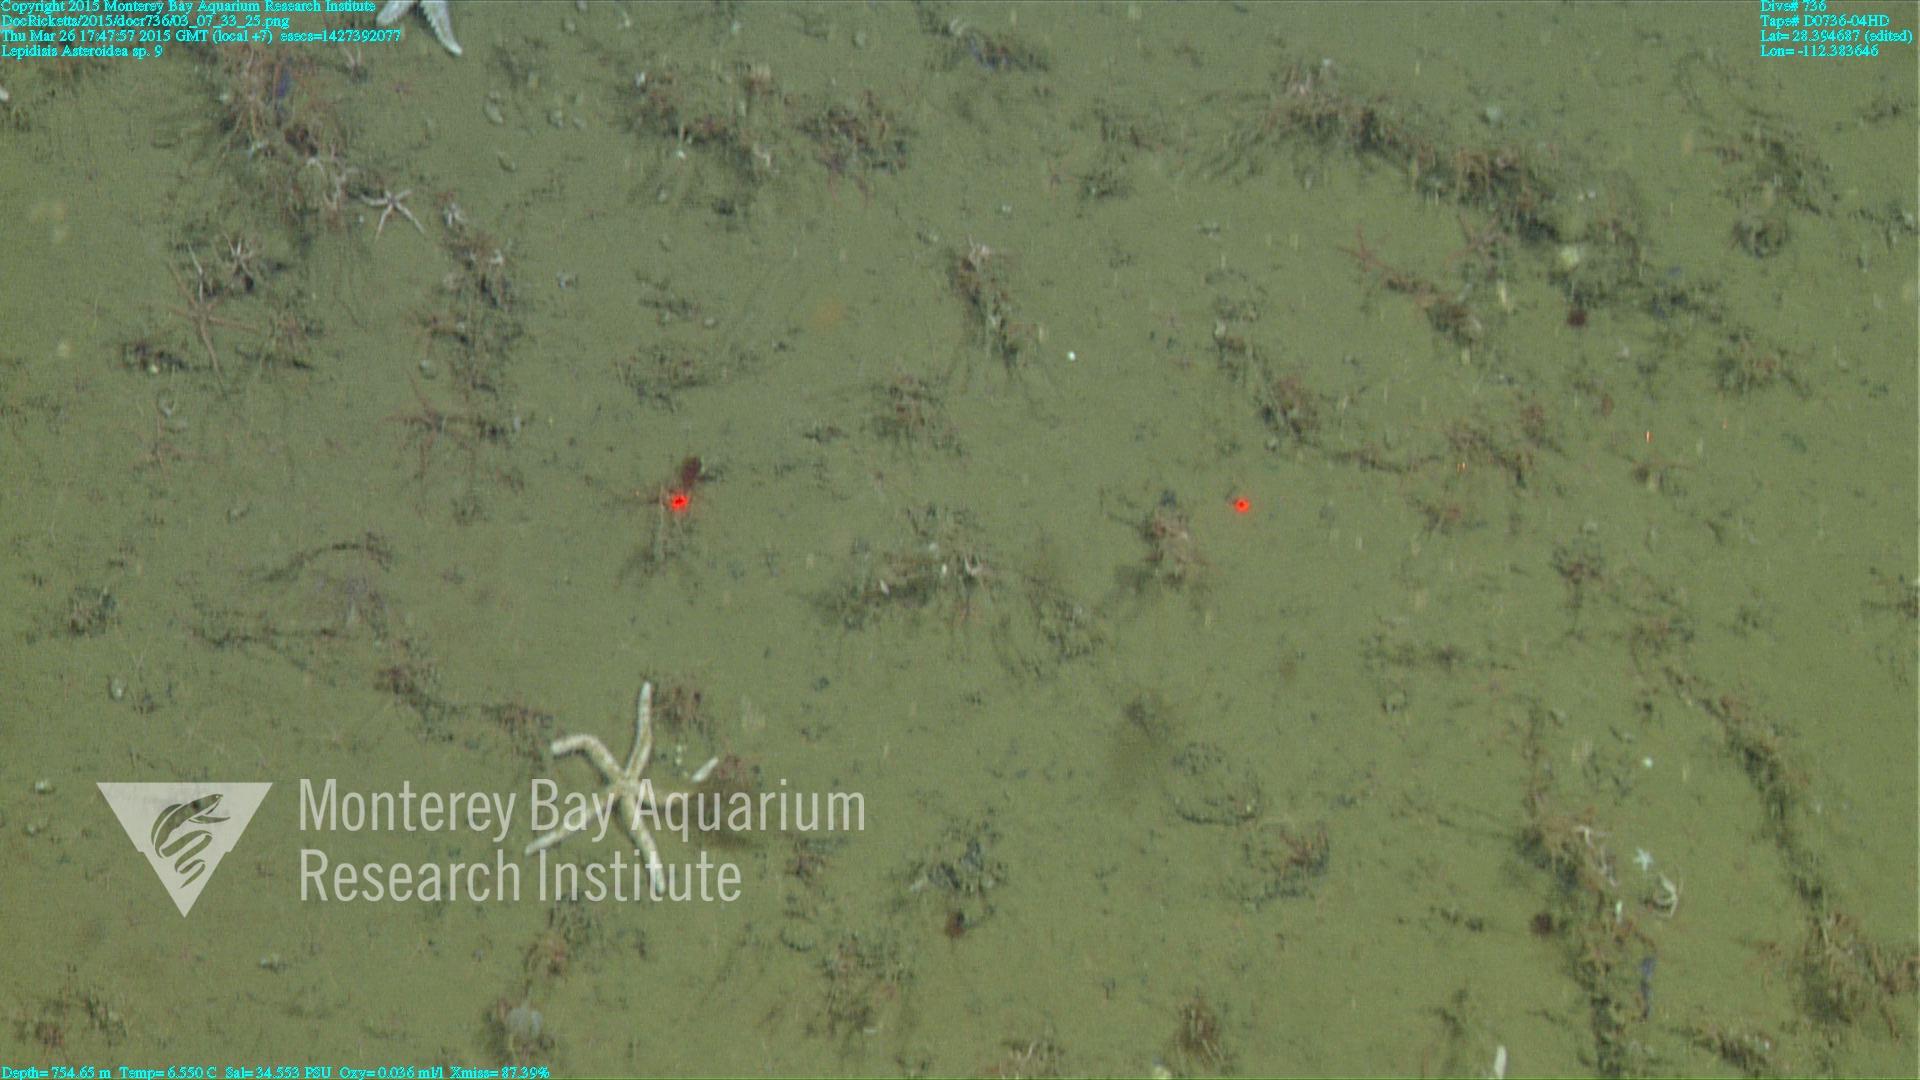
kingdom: Animalia
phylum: Cnidaria
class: Anthozoa
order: Scleralcyonacea
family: Keratoisididae
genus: Lepidisis
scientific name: Lepidisis
